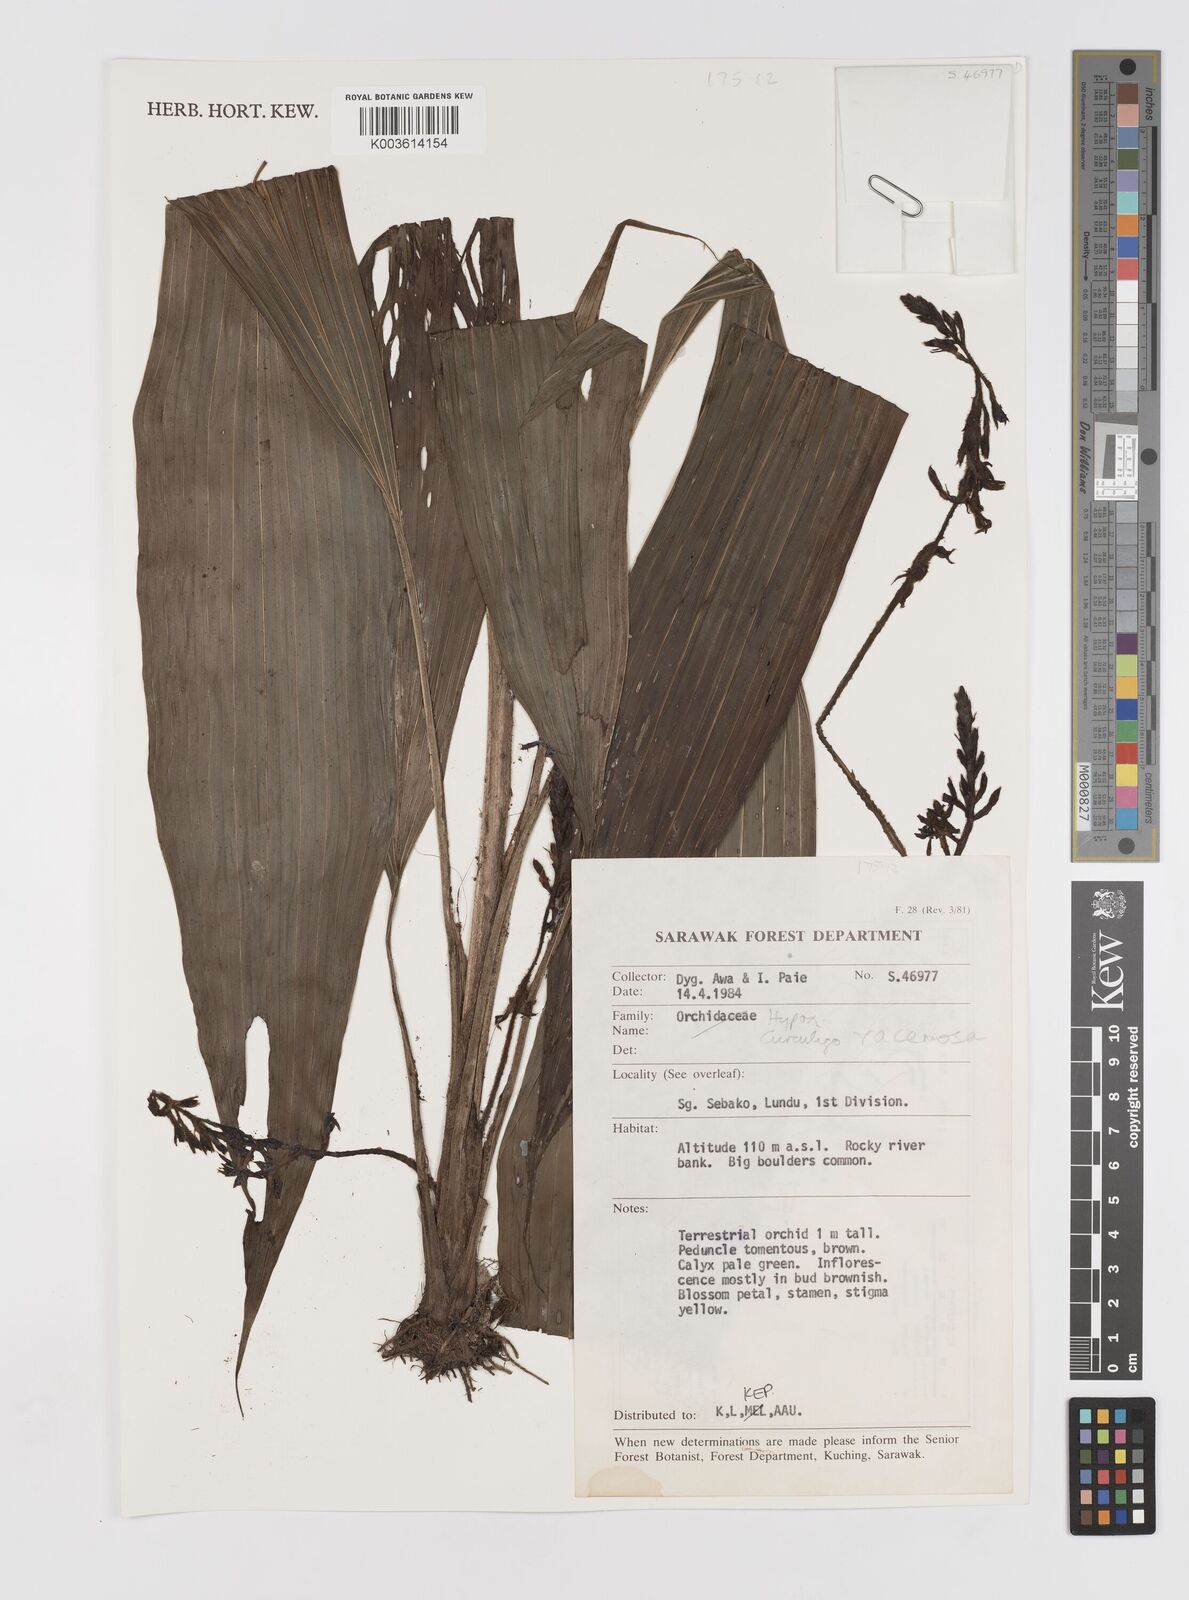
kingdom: Plantae
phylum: Tracheophyta
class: Liliopsida
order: Asparagales
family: Hypoxidaceae
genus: Curculigo
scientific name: Curculigo racemosa
